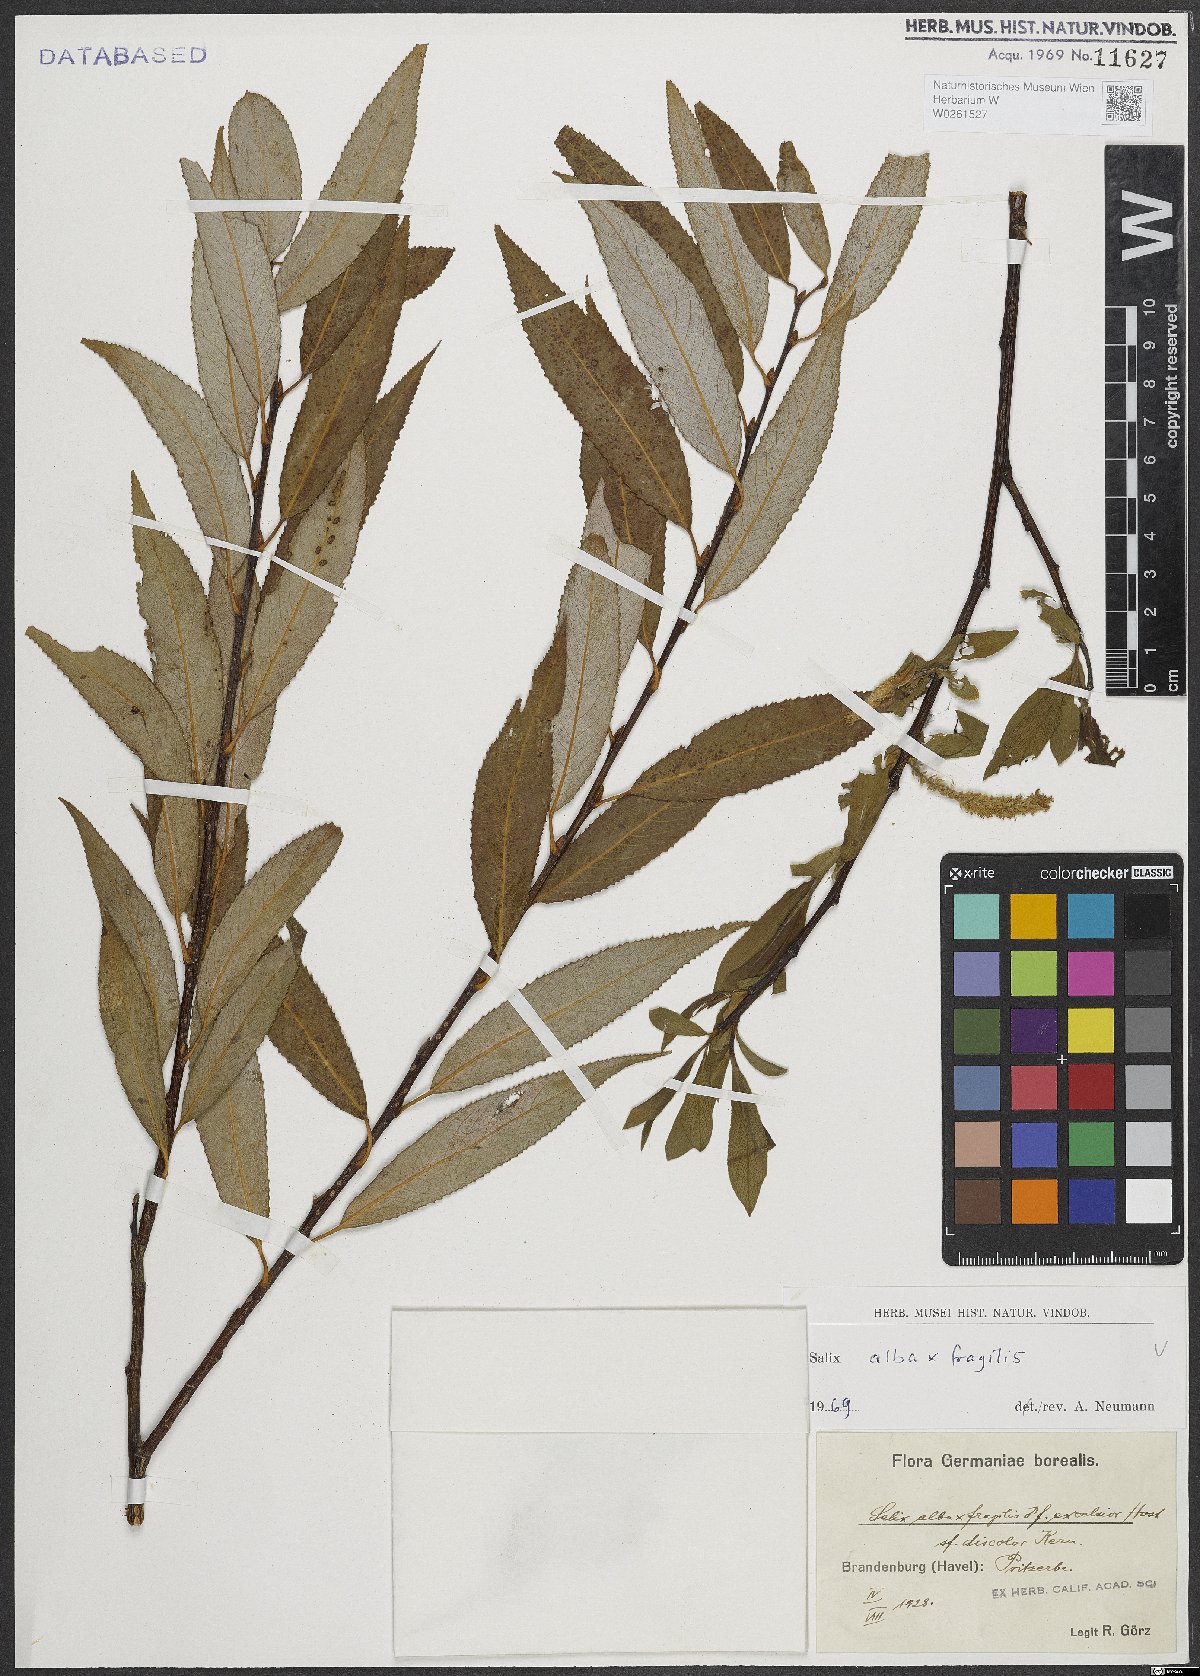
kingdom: Plantae
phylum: Tracheophyta
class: Magnoliopsida
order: Malpighiales
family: Salicaceae
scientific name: Salicaceae
